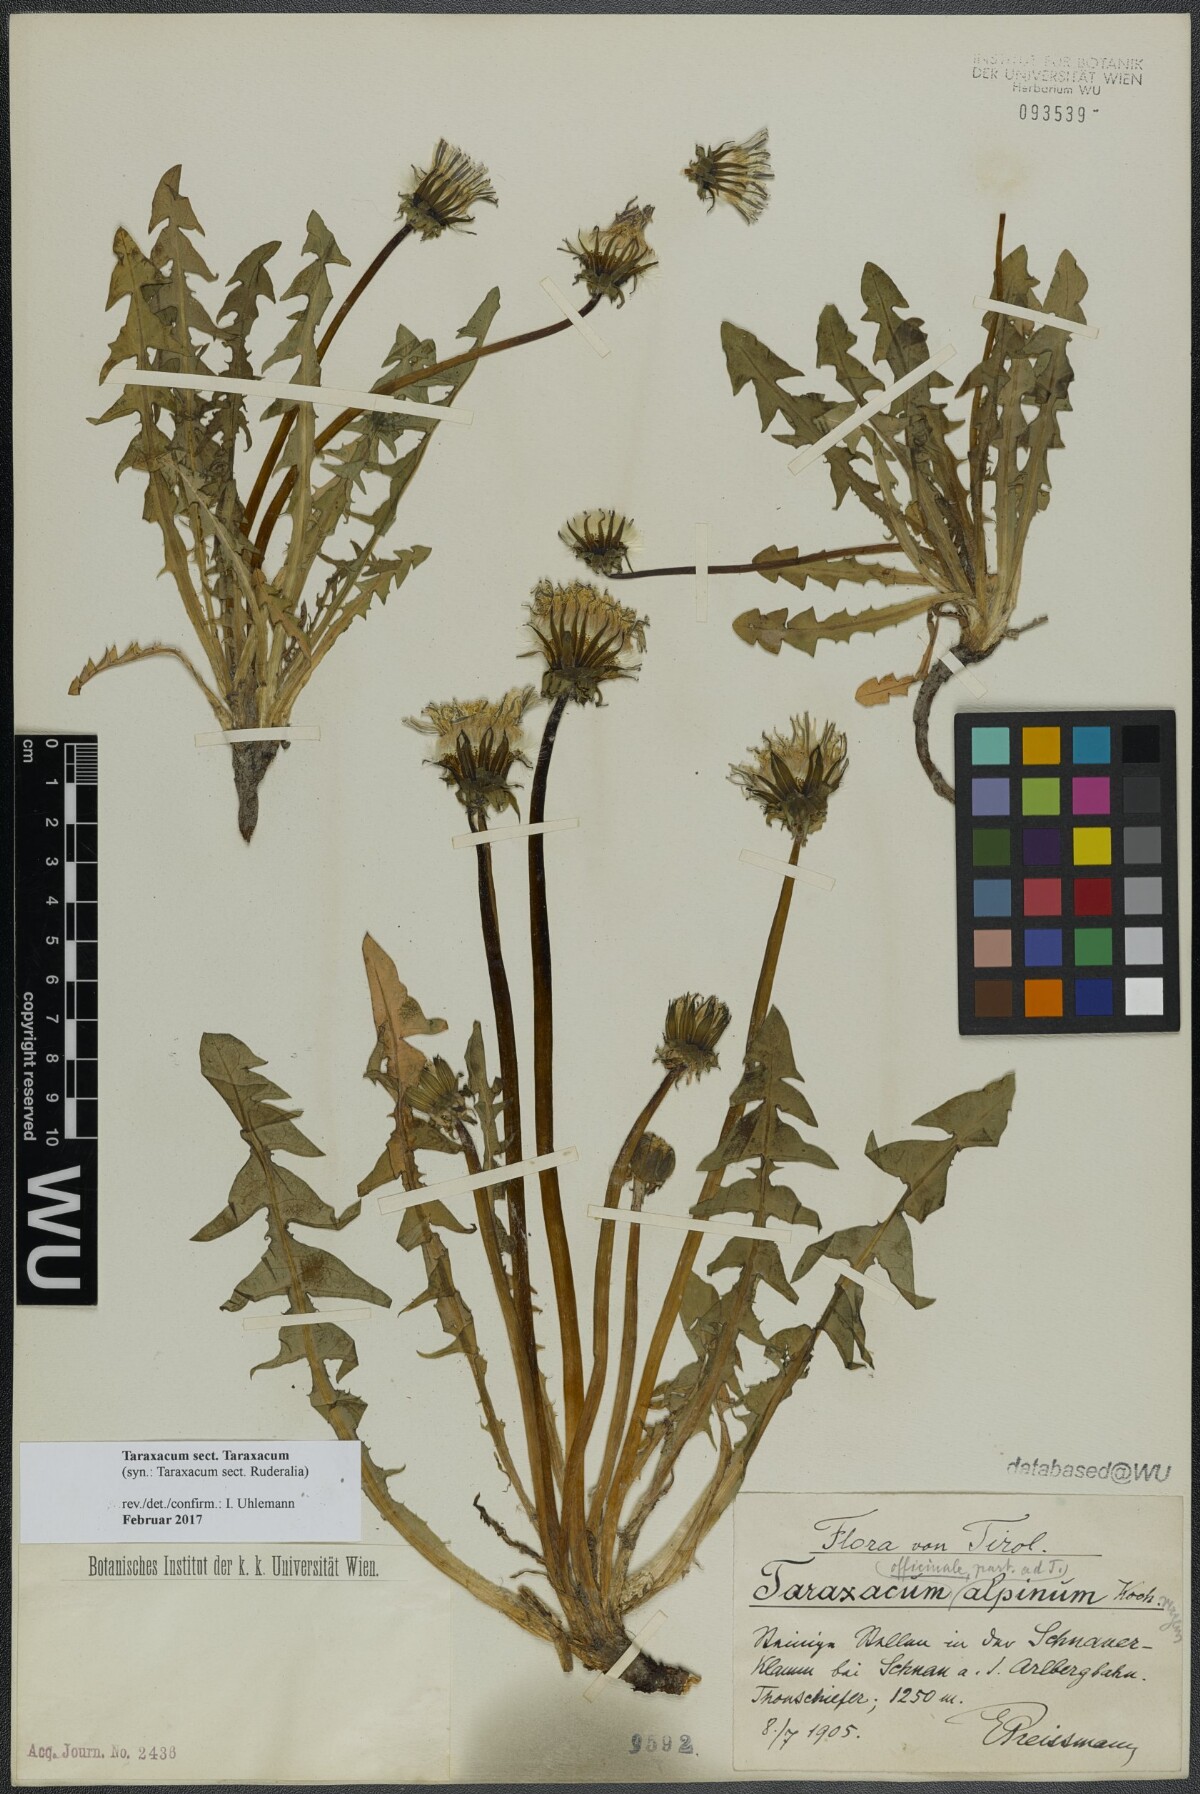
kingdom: Plantae
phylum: Tracheophyta
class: Magnoliopsida
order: Asterales
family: Asteraceae
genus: Taraxacum
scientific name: Taraxacum
